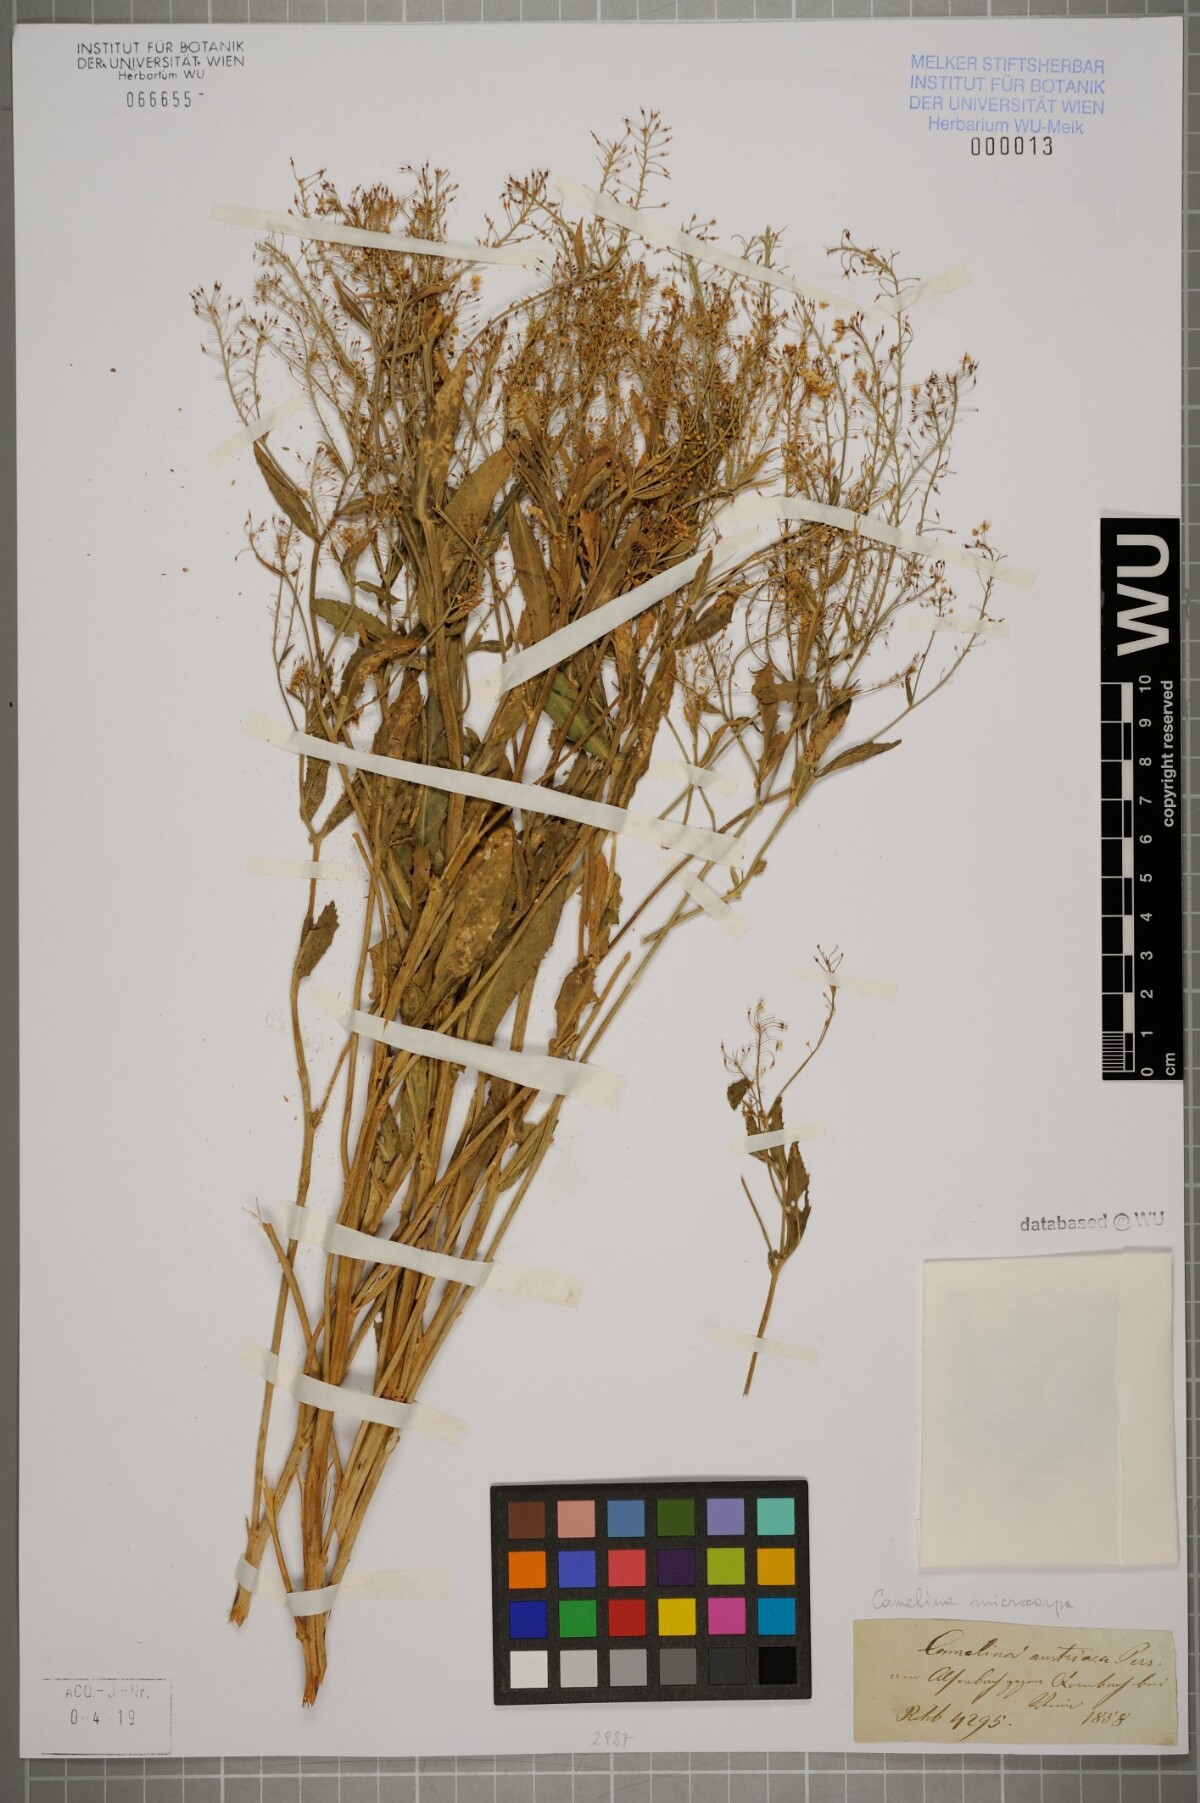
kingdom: Plantae
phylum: Tracheophyta
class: Magnoliopsida
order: Brassicales
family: Brassicaceae
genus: Camelina
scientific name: Camelina microcarpa
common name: Lesser gold-of-pleasure
